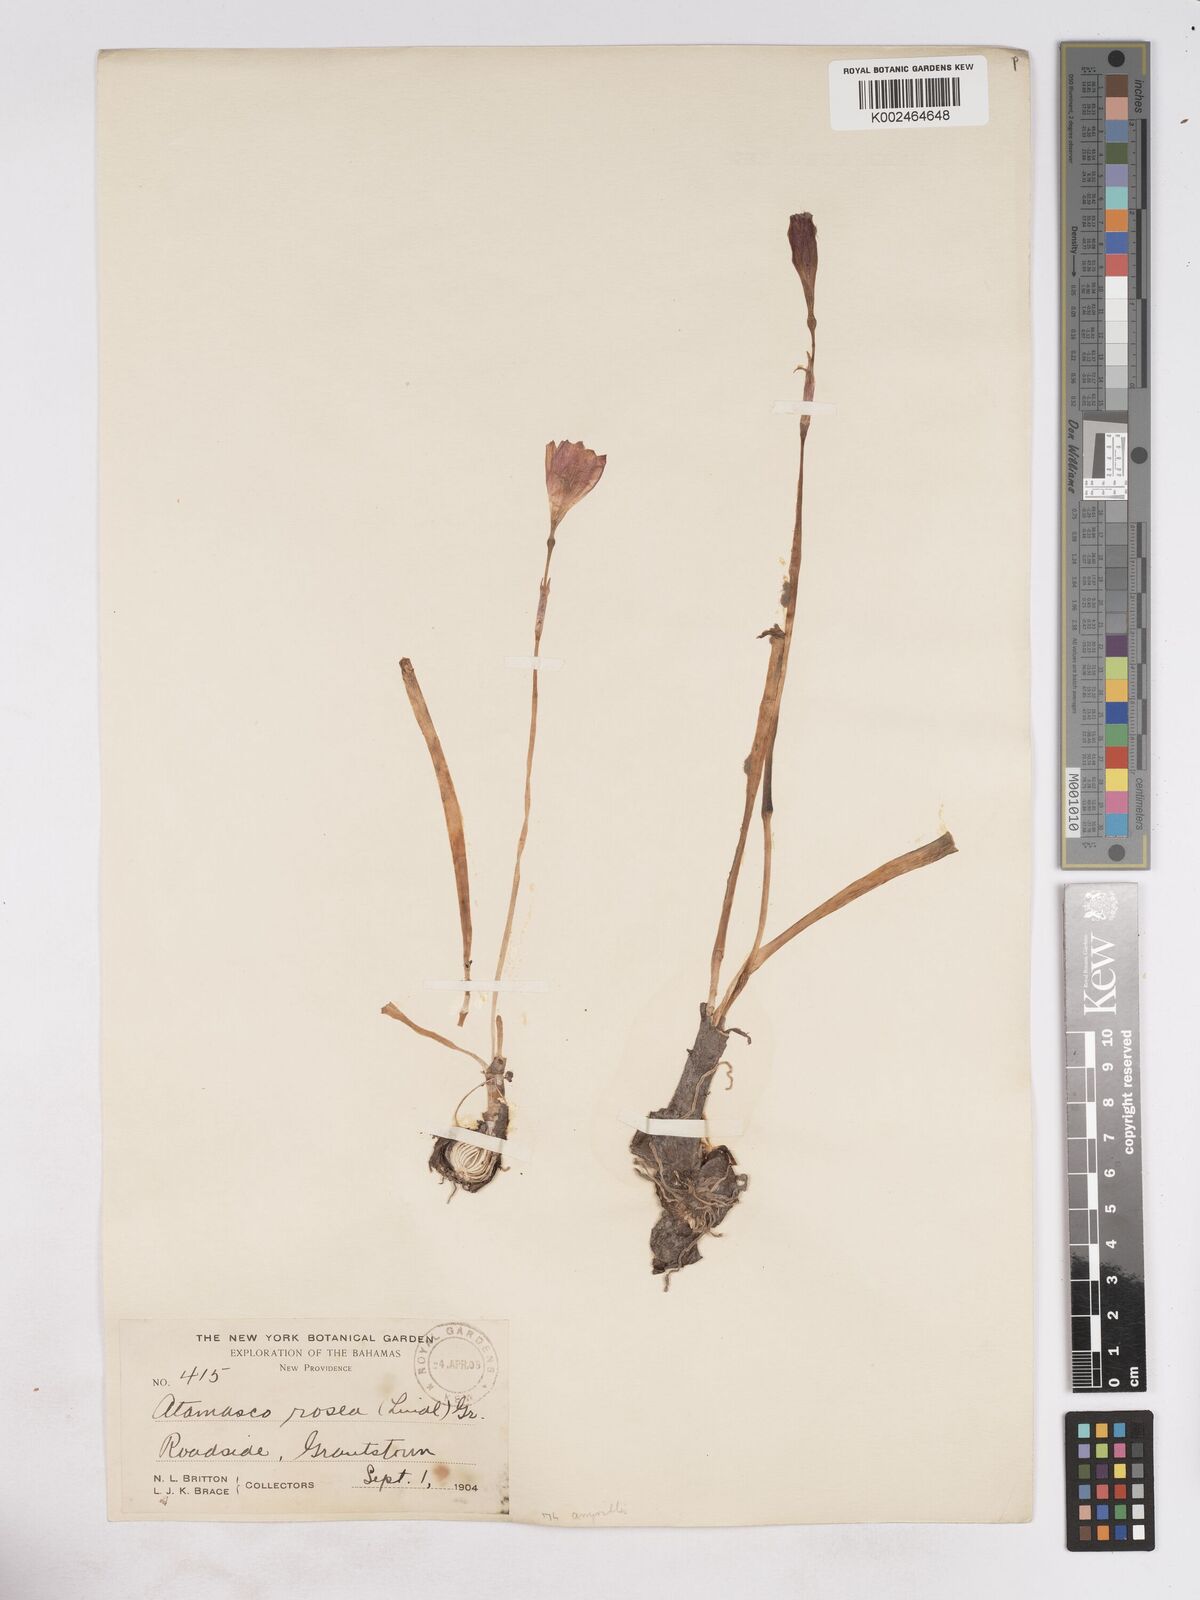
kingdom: Plantae
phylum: Tracheophyta
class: Liliopsida
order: Asparagales
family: Amaryllidaceae
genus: Zephyranthes
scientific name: Zephyranthes rosea
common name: Cuban zephyrlily
